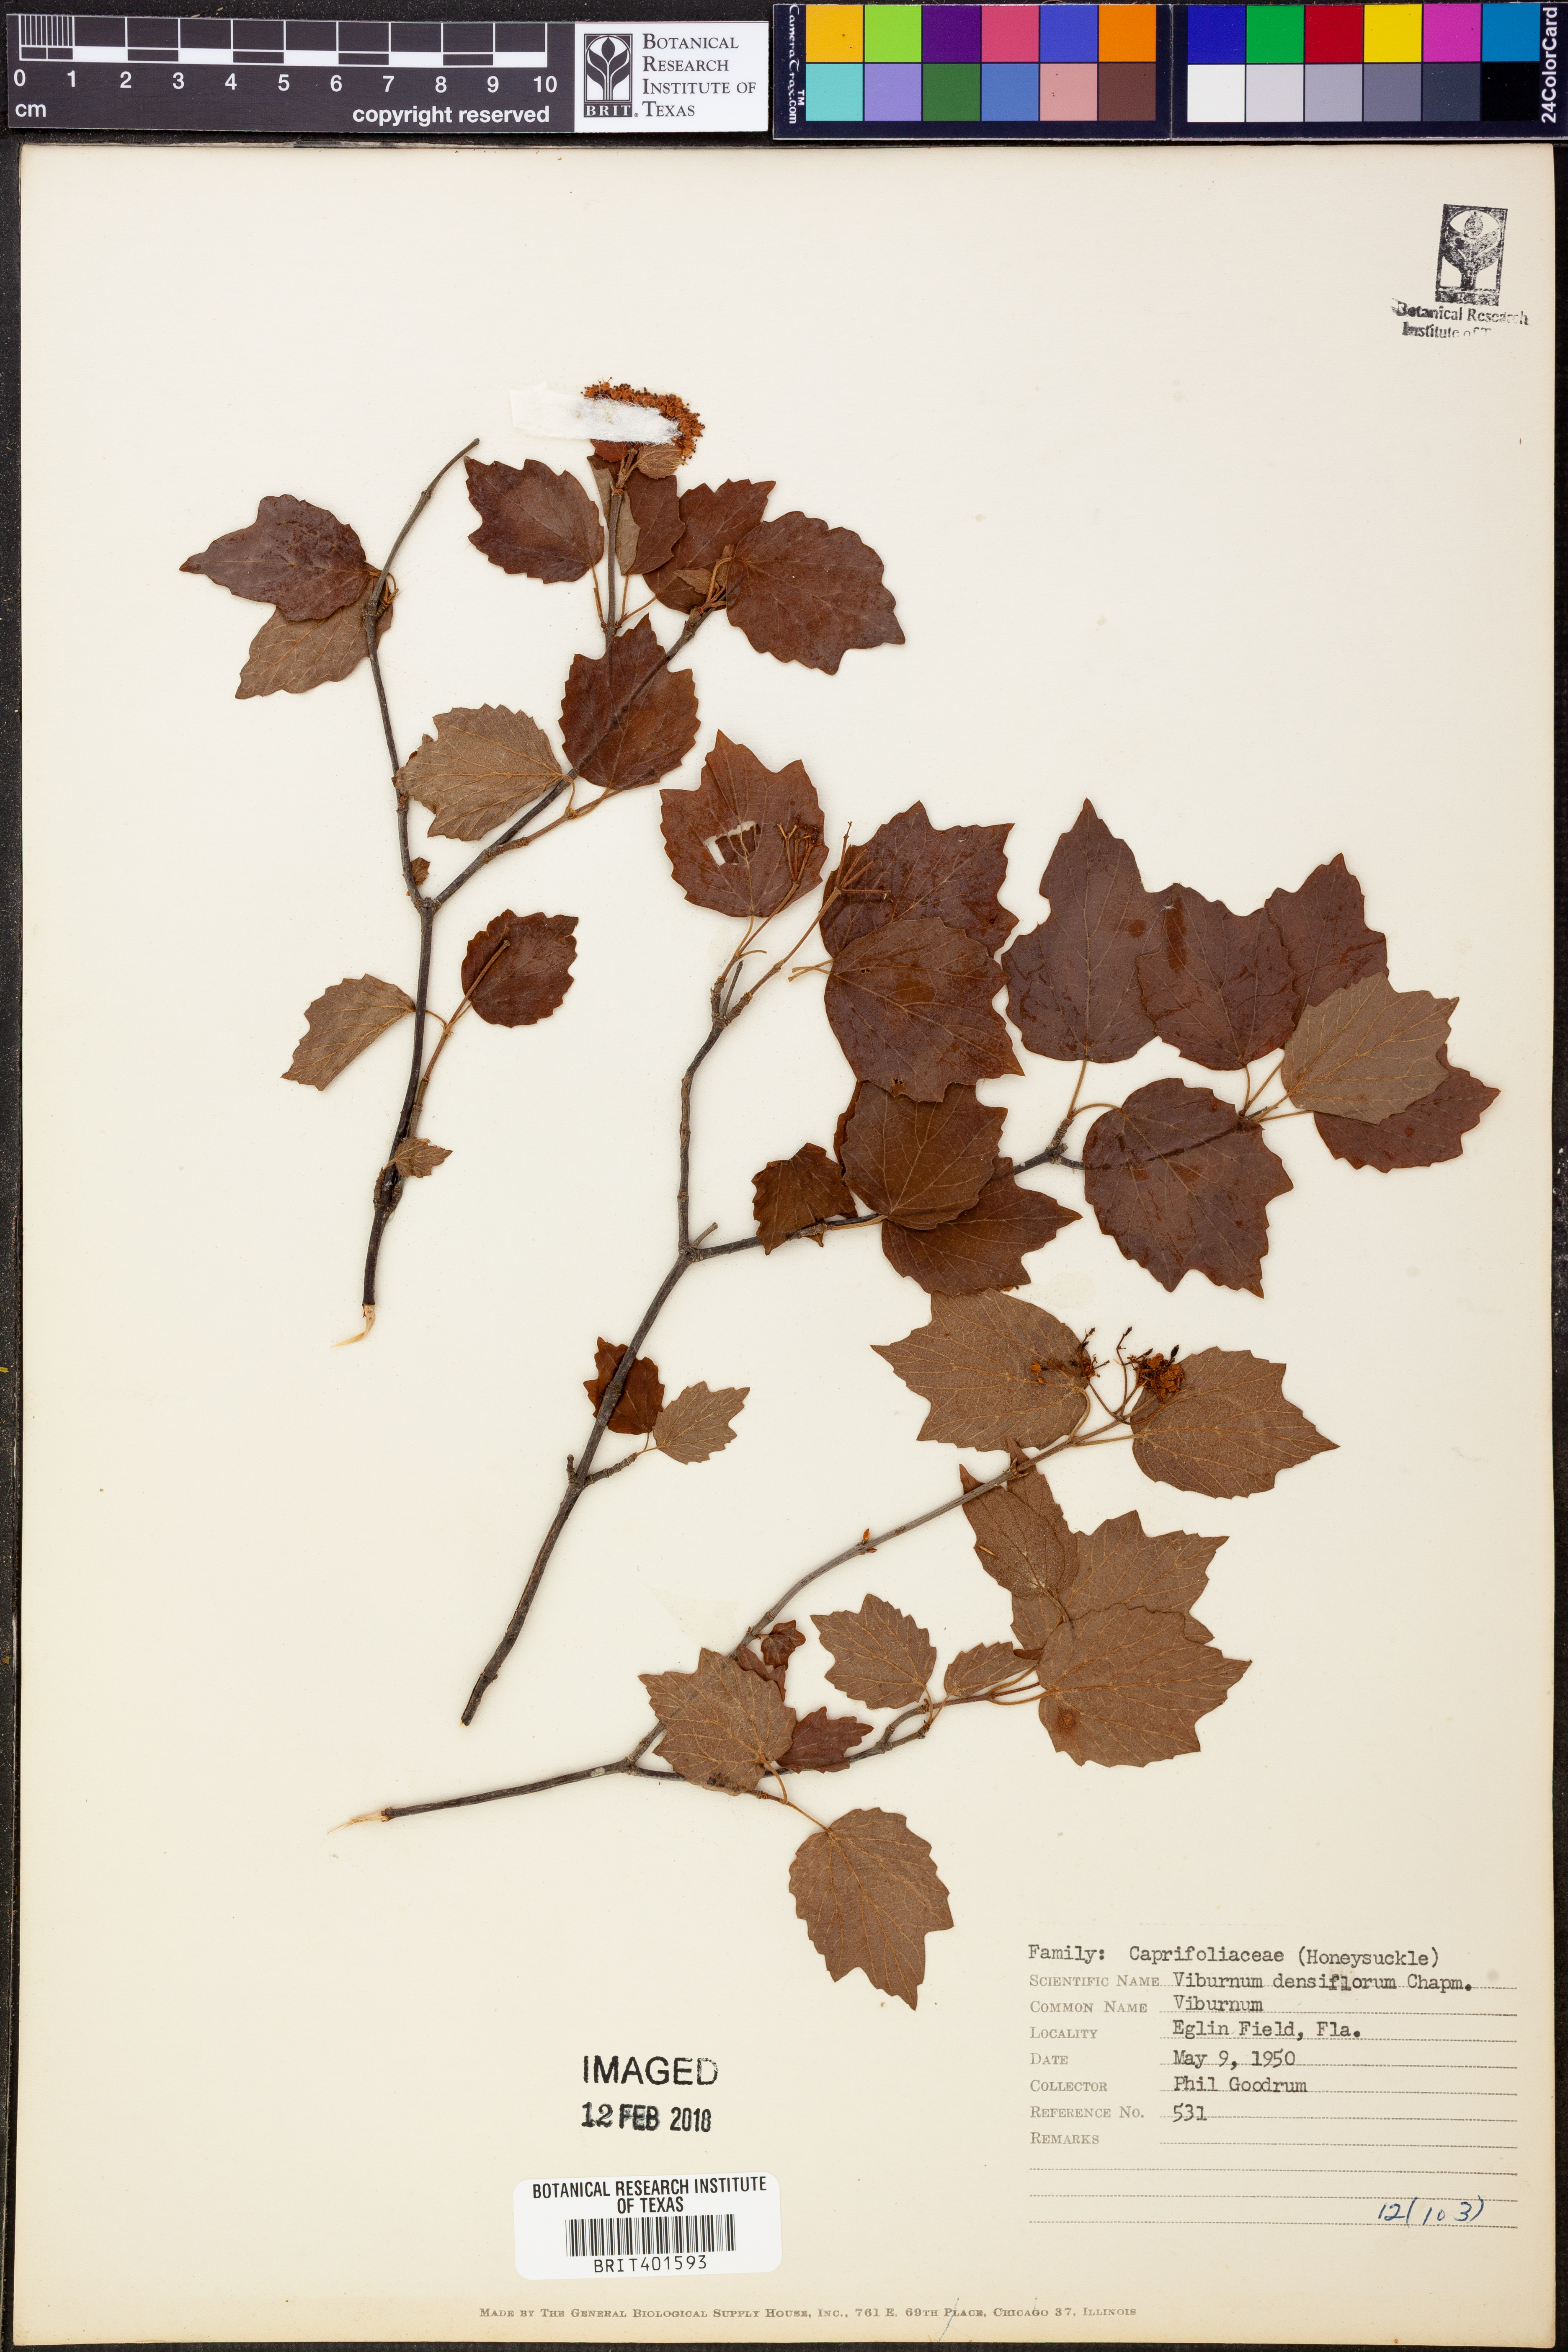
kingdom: Plantae
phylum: Tracheophyta
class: Magnoliopsida
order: Dipsacales
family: Viburnaceae
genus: Viburnum
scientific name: Viburnum acerifolium
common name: Dockmackie
